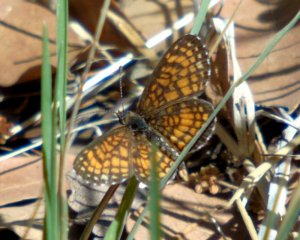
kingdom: Animalia
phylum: Arthropoda
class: Insecta
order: Lepidoptera
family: Nymphalidae
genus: Texola
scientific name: Texola elada
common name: Elada Checkerspot
